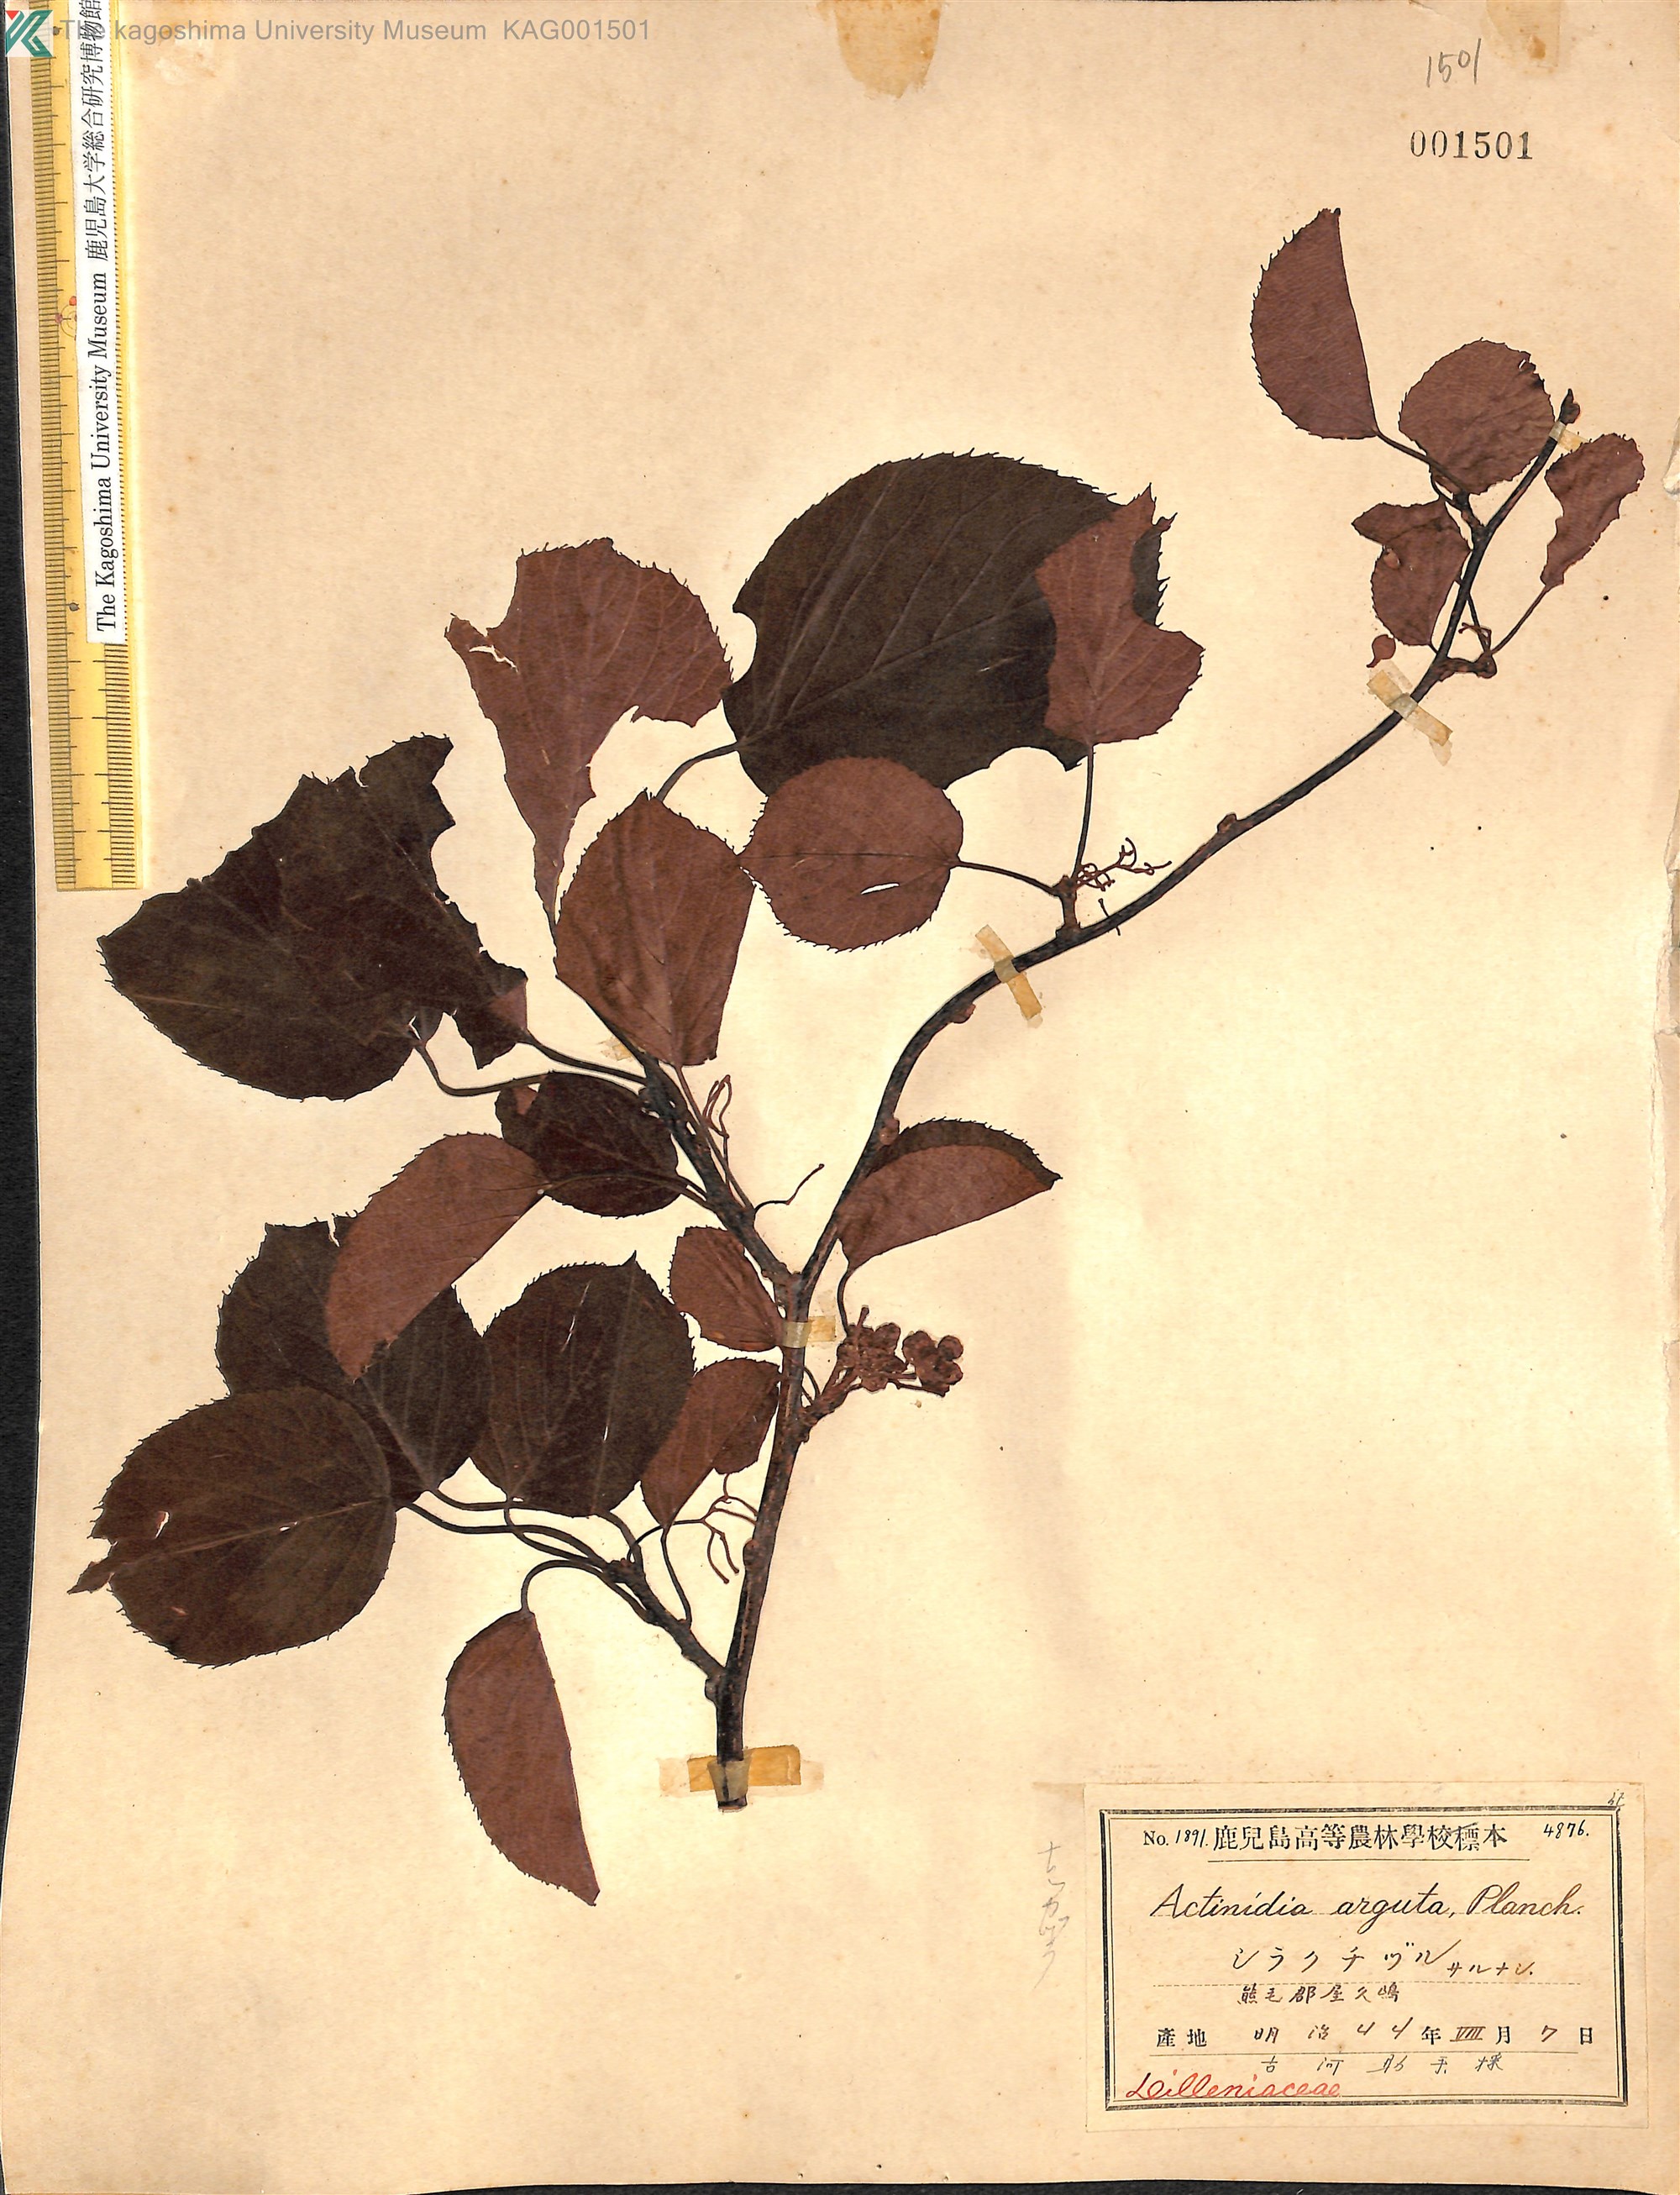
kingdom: Plantae
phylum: Tracheophyta
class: Magnoliopsida
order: Ericales
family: Actinidiaceae
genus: Actinidia
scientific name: Actinidia arguta
